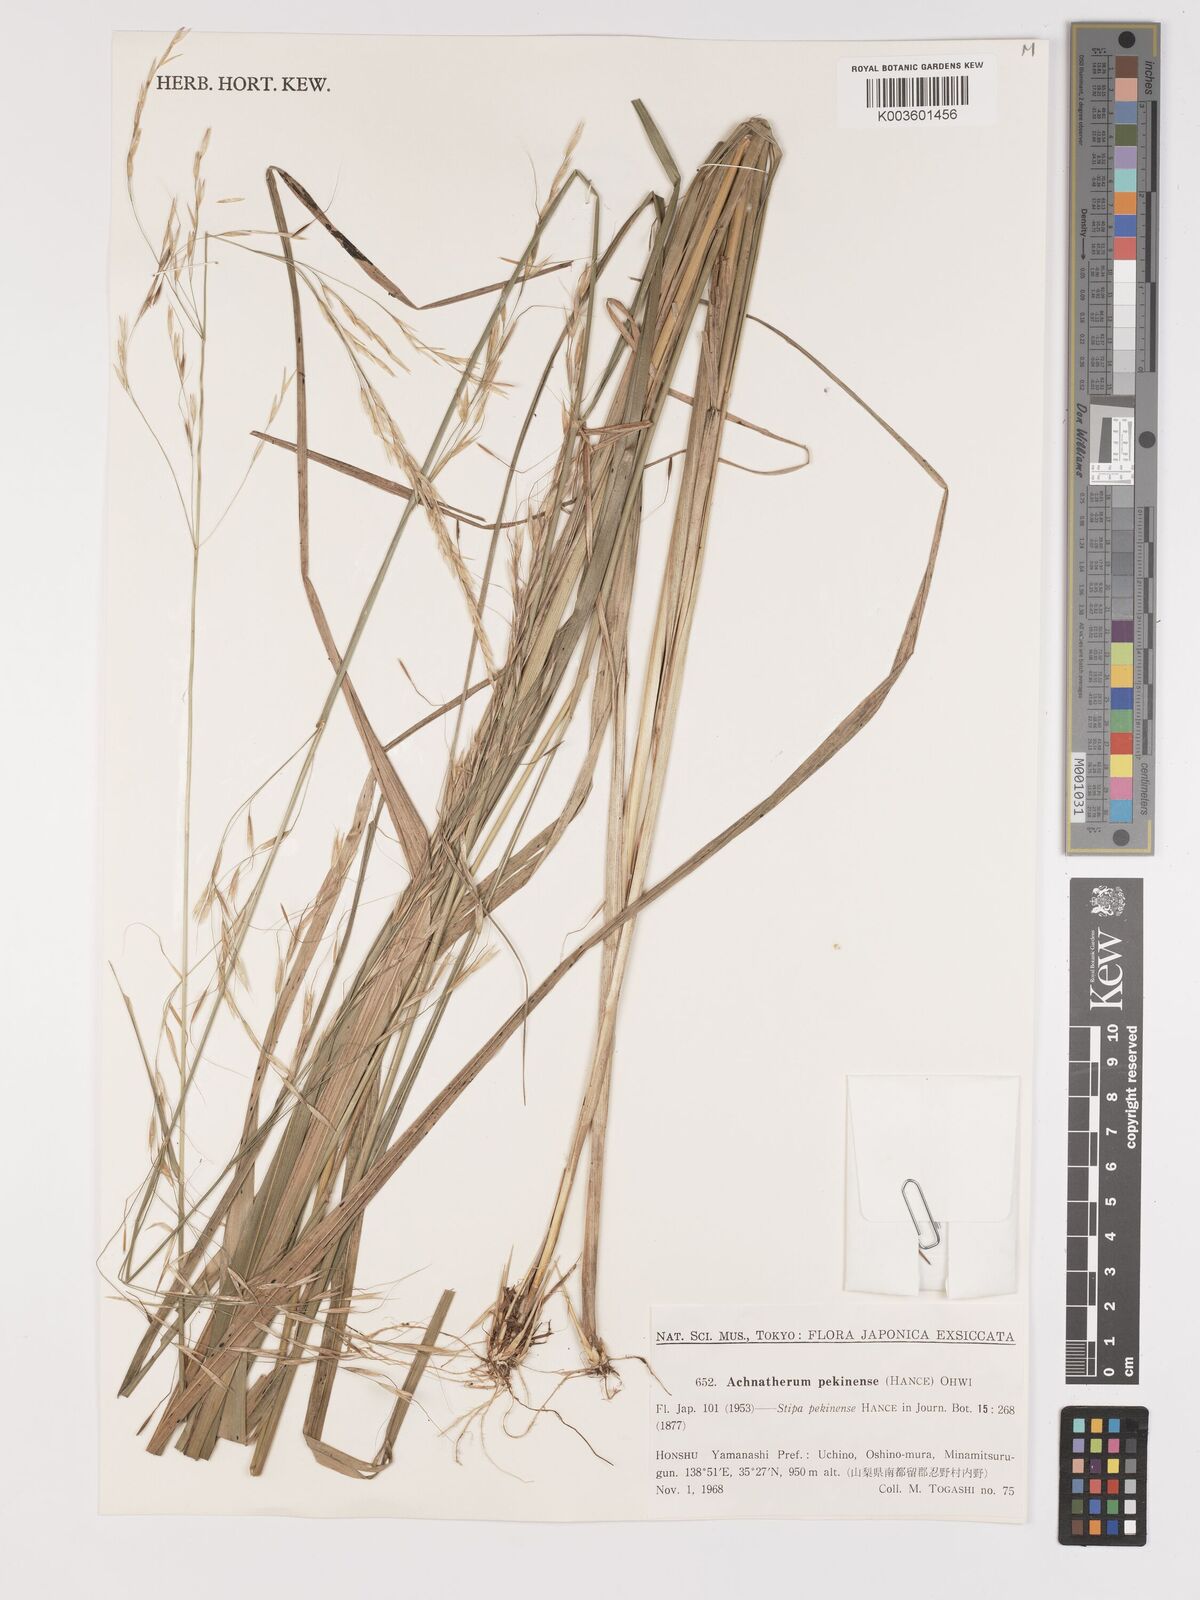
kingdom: Plantae
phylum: Tracheophyta
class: Liliopsida
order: Poales
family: Poaceae
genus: Achnatherum
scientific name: Achnatherum pekinense
